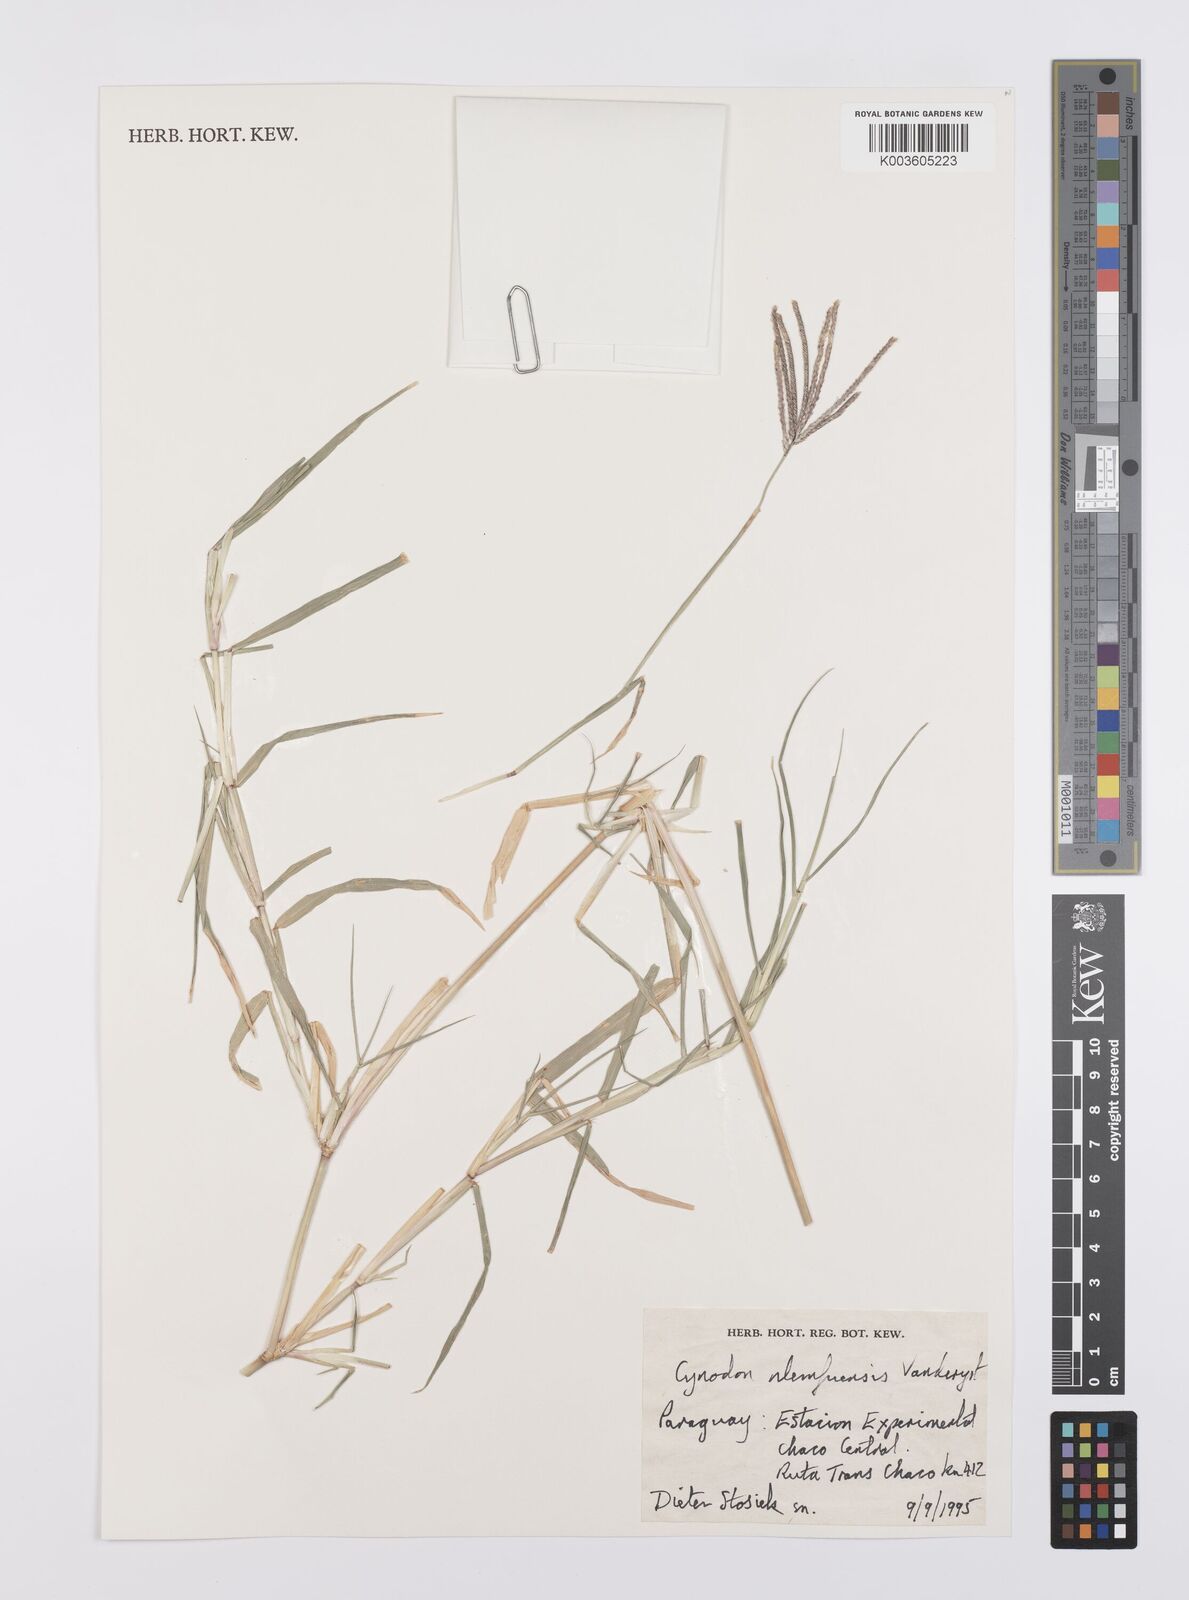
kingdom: Plantae
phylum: Tracheophyta
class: Liliopsida
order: Poales
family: Poaceae
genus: Cynodon
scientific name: Cynodon nlemfuensis
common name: African bermudagrass
